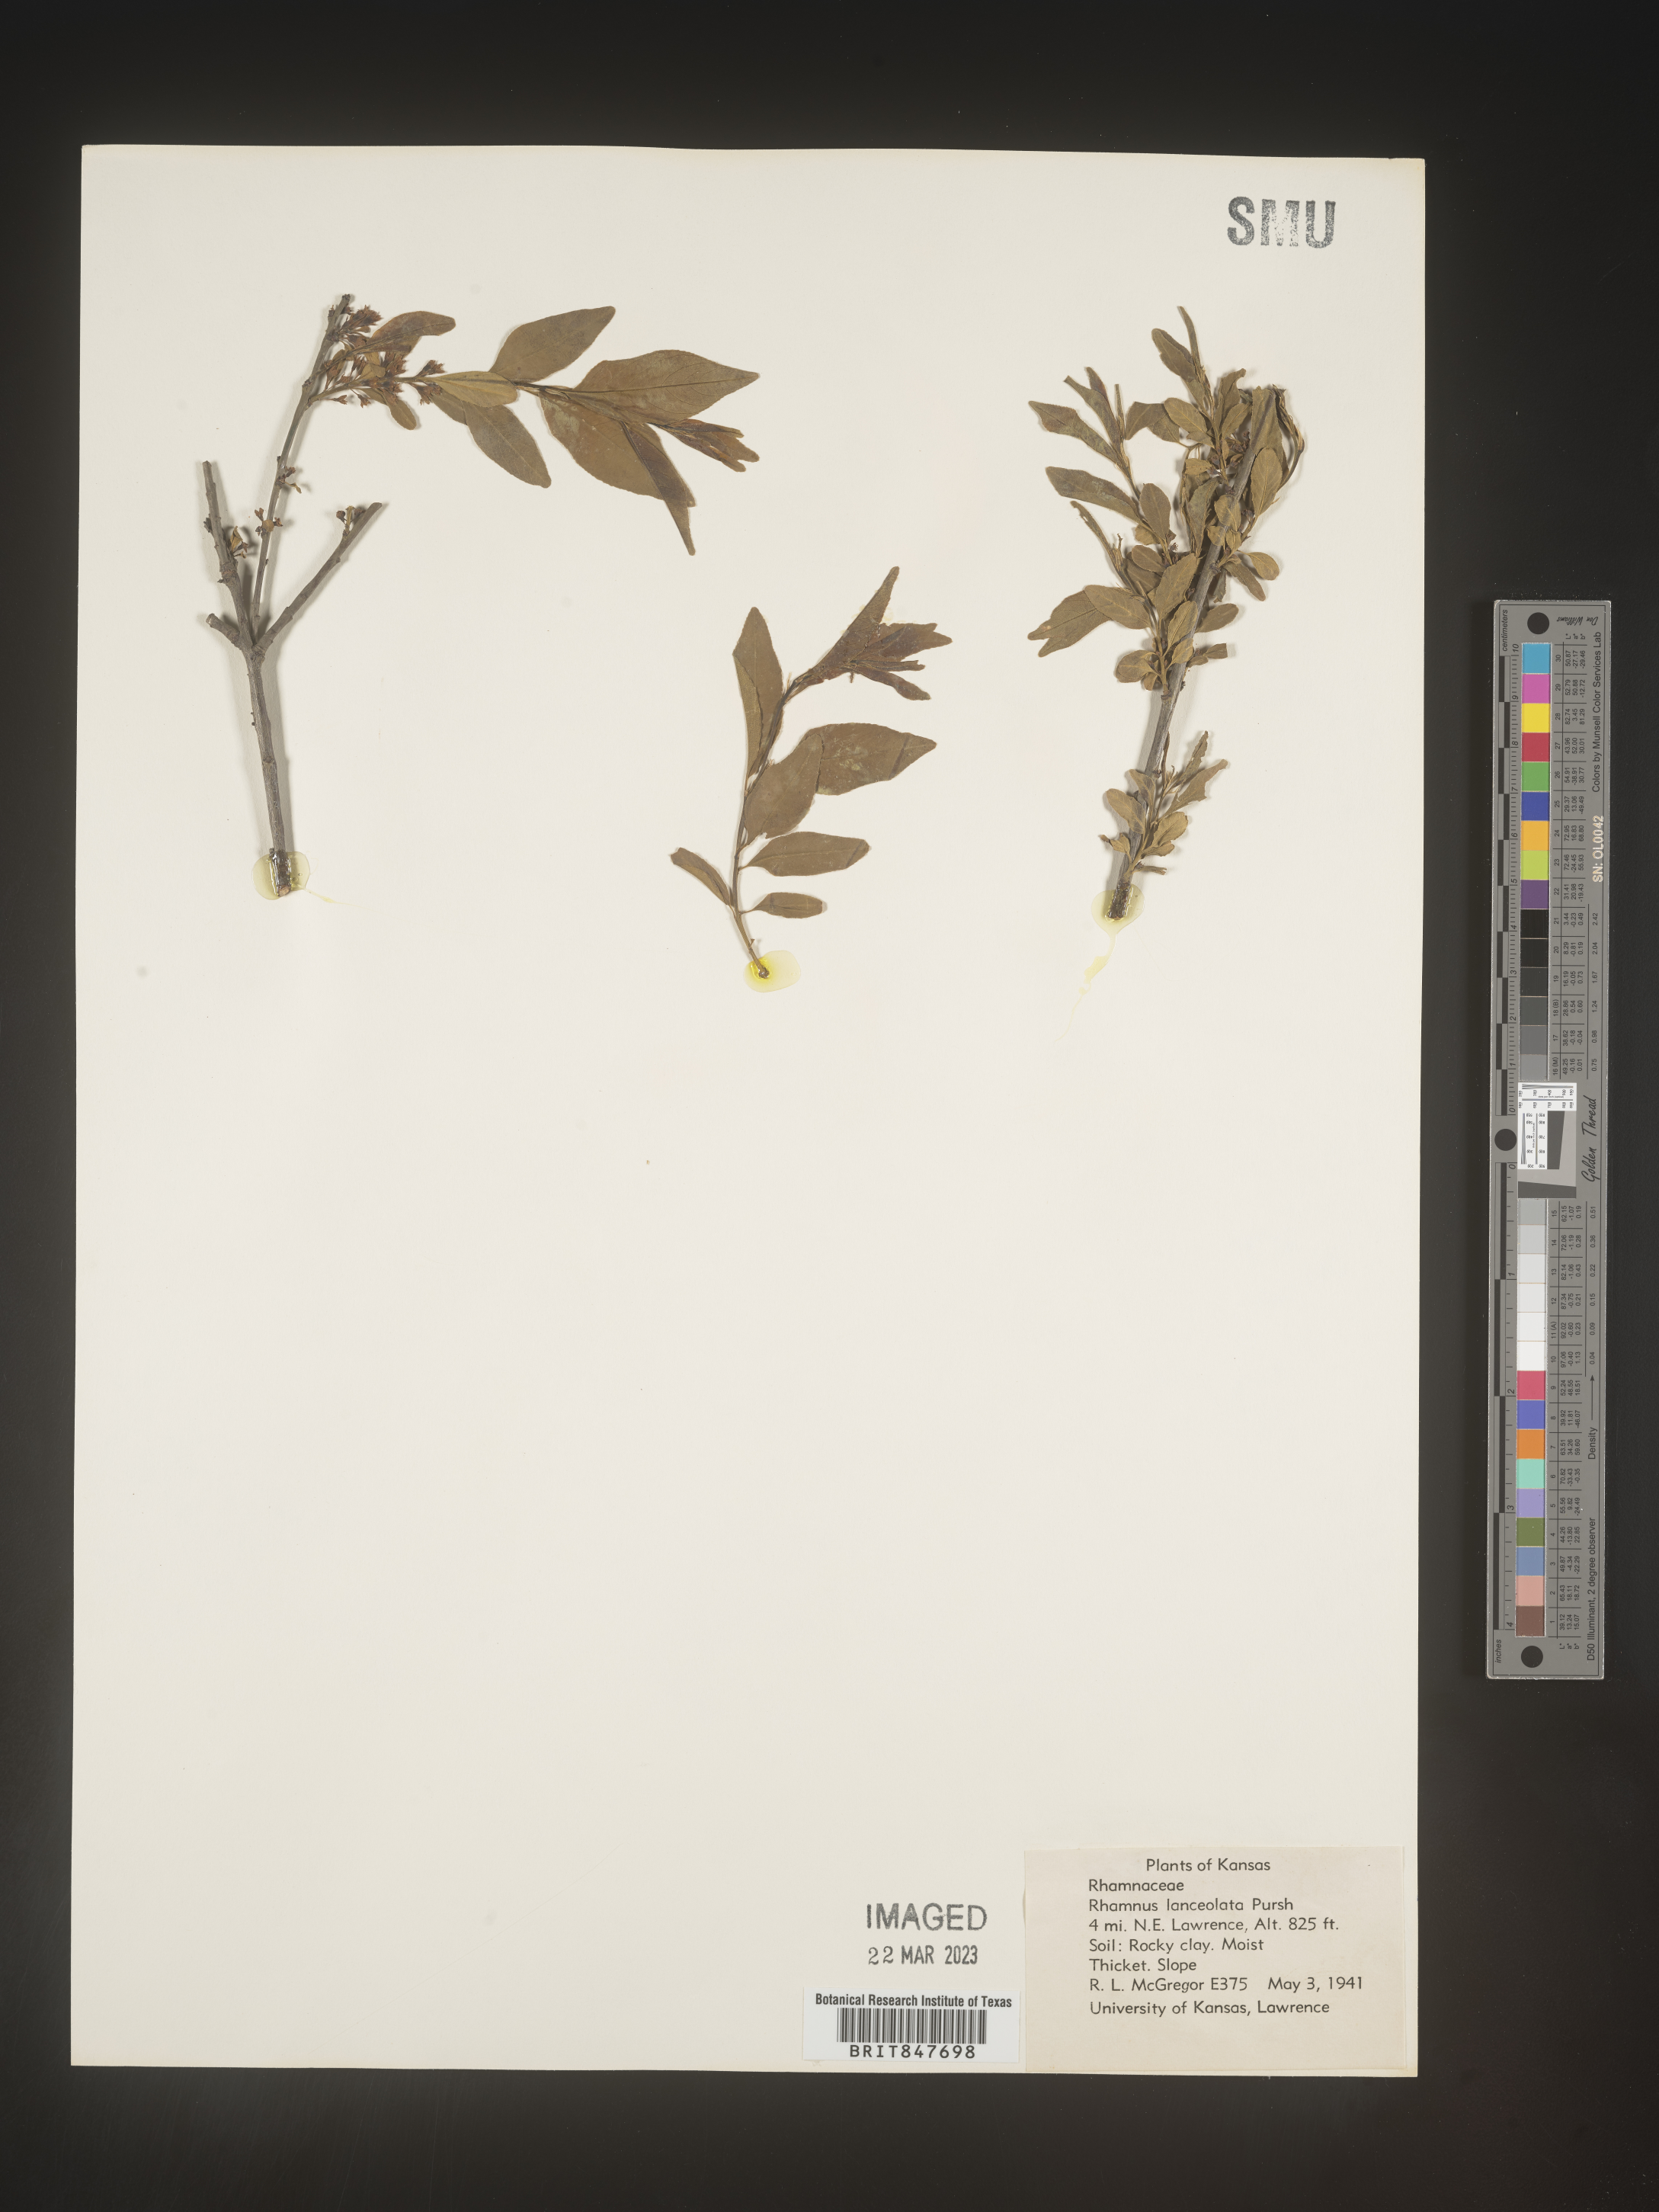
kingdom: Plantae
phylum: Tracheophyta
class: Magnoliopsida
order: Rosales
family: Rhamnaceae
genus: Endotropis
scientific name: Endotropis lanceolata
